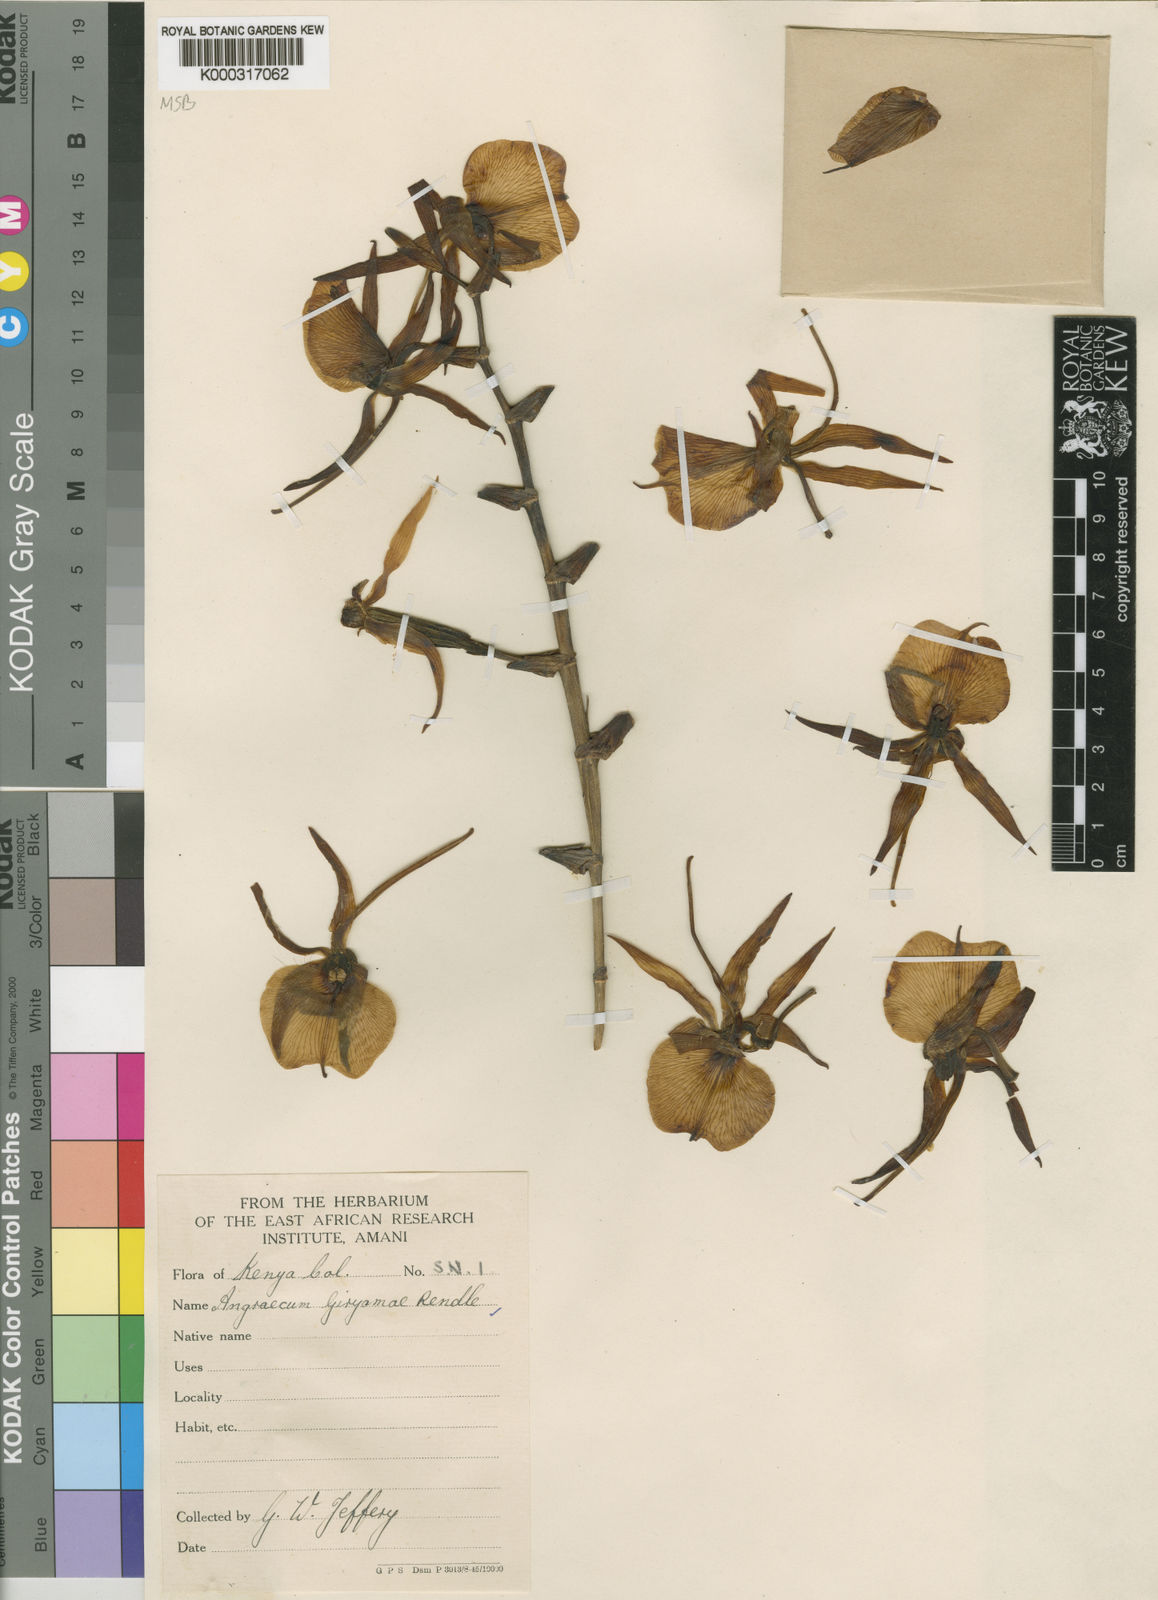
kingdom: Plantae
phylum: Tracheophyta
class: Liliopsida
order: Asparagales
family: Orchidaceae
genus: Angraecum
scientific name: Angraecum eburneum
